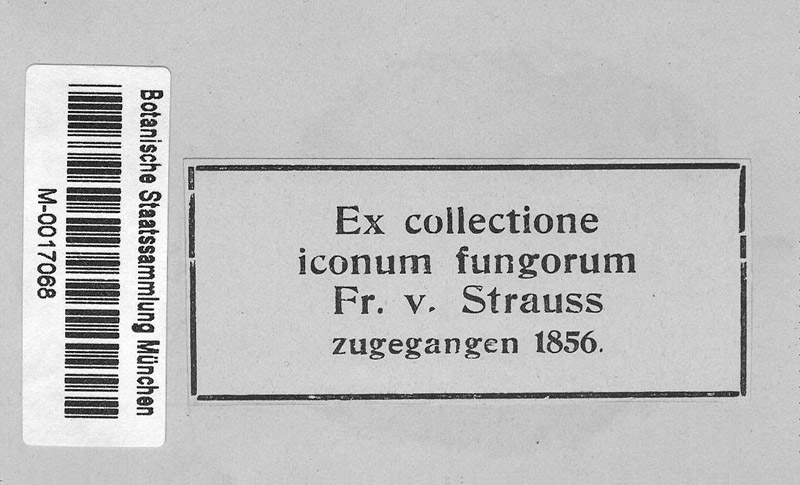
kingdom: Fungi
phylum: Ascomycota
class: Leotiomycetes
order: Helotiales
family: Erysiphaceae
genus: Phyllactinia
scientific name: Phyllactinia guttata
